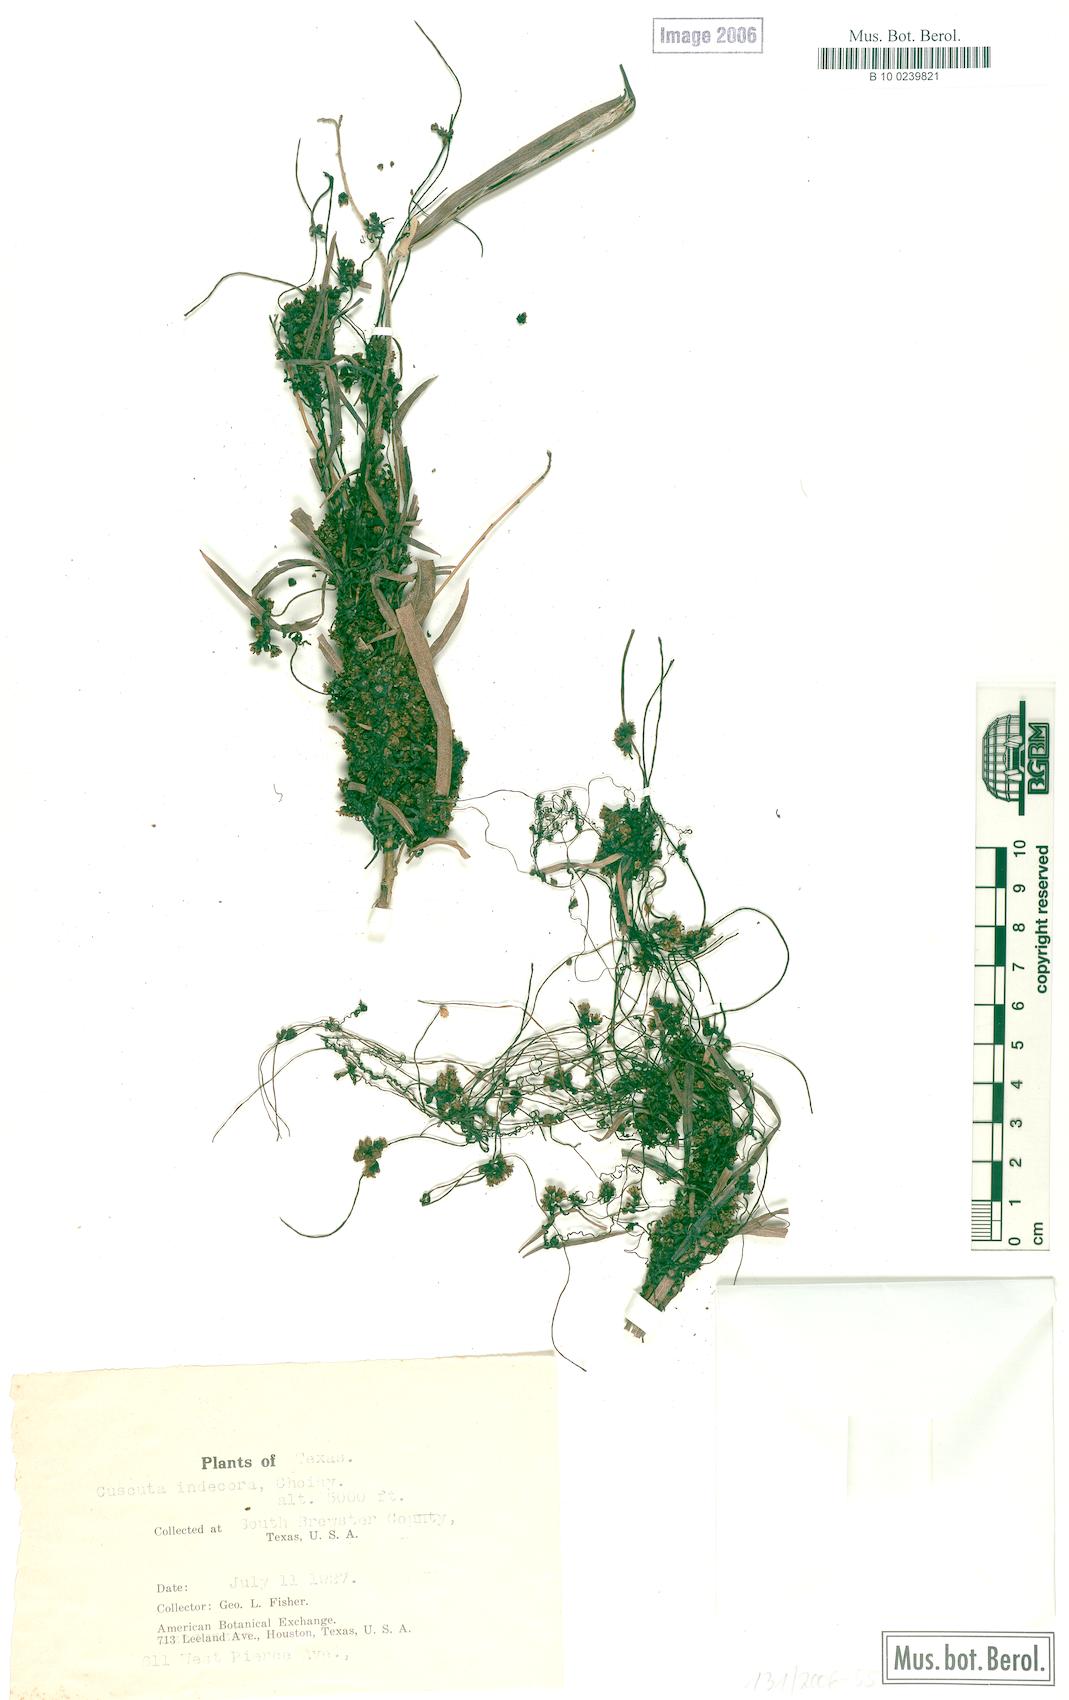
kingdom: Plantae
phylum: Tracheophyta
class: Magnoliopsida
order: Solanales
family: Convolvulaceae
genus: Cuscuta
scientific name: Cuscuta indecora
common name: Large-seed dodder
